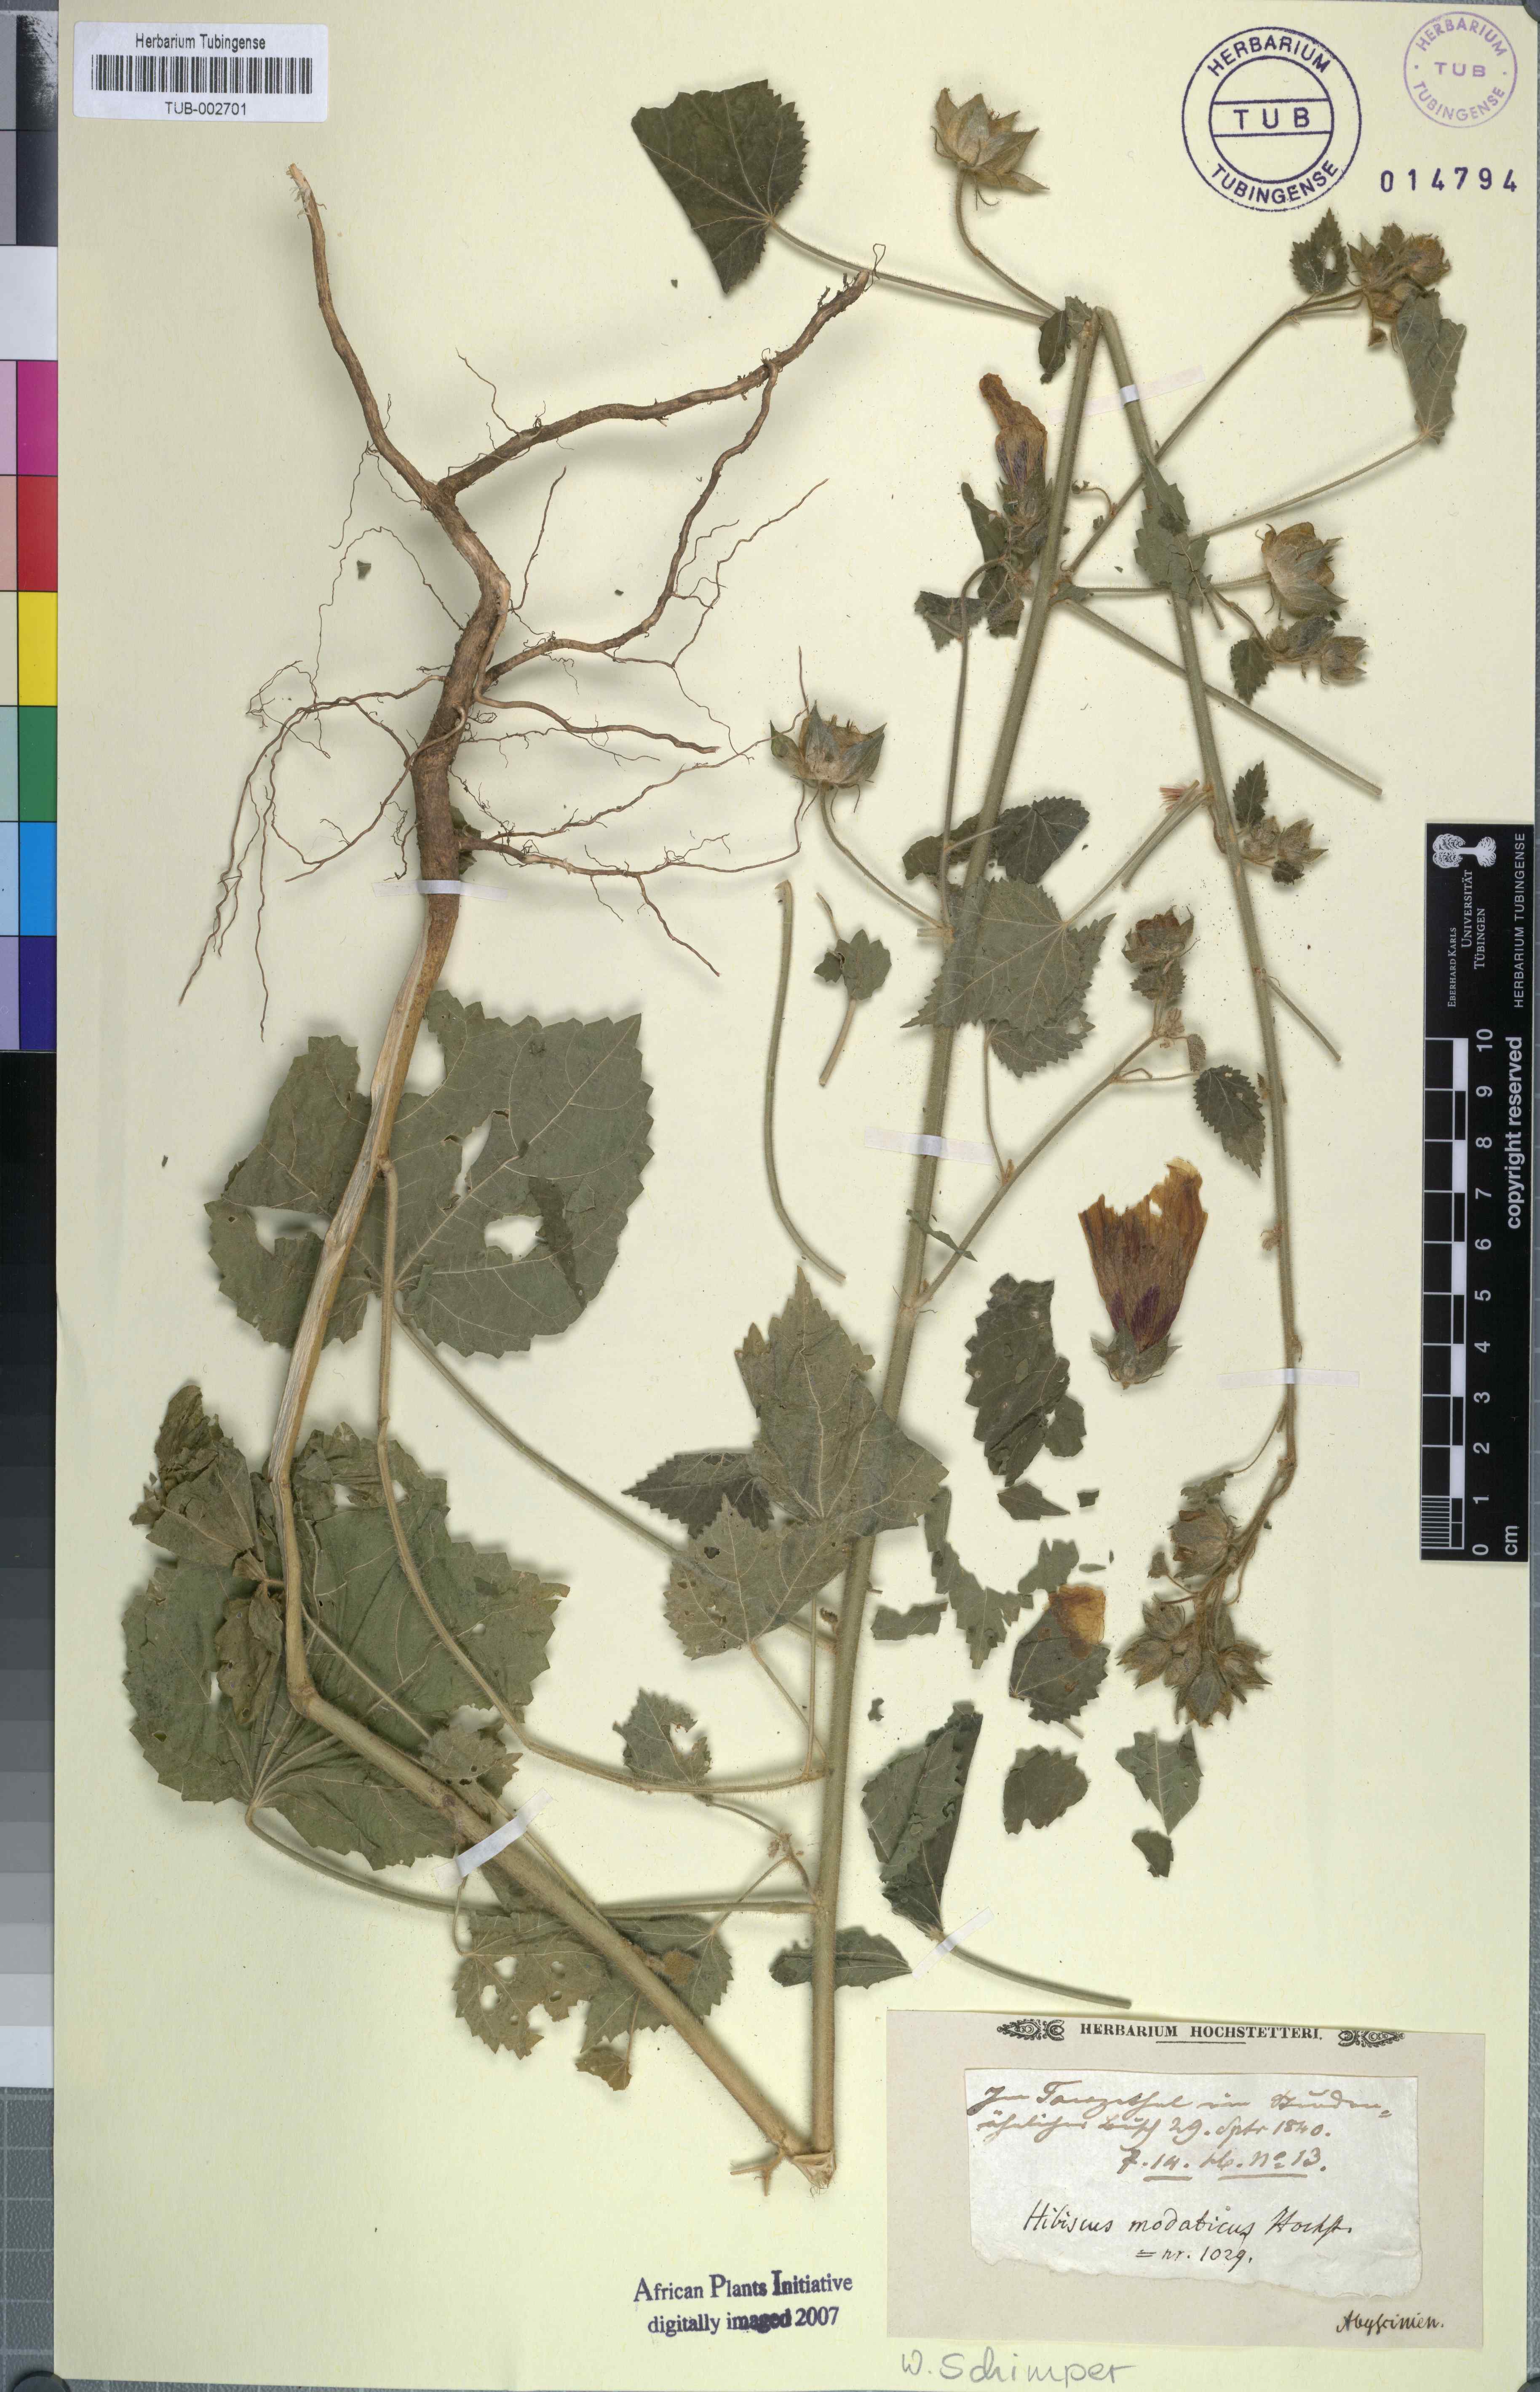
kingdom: Plantae
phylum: Tracheophyta
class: Magnoliopsida
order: Malvales
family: Malvaceae
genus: Hibiscus
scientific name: Hibiscus vitifolius
